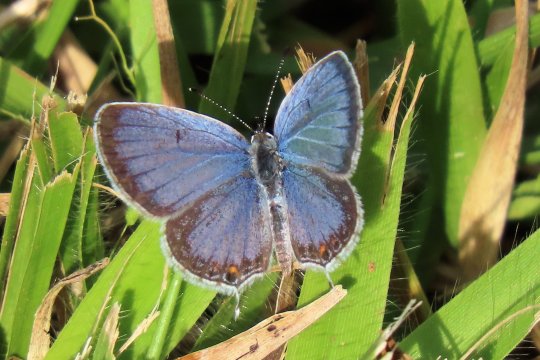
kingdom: Animalia
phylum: Arthropoda
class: Insecta
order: Lepidoptera
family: Lycaenidae
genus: Elkalyce
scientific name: Elkalyce comyntas
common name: Eastern Tailed-Blue
